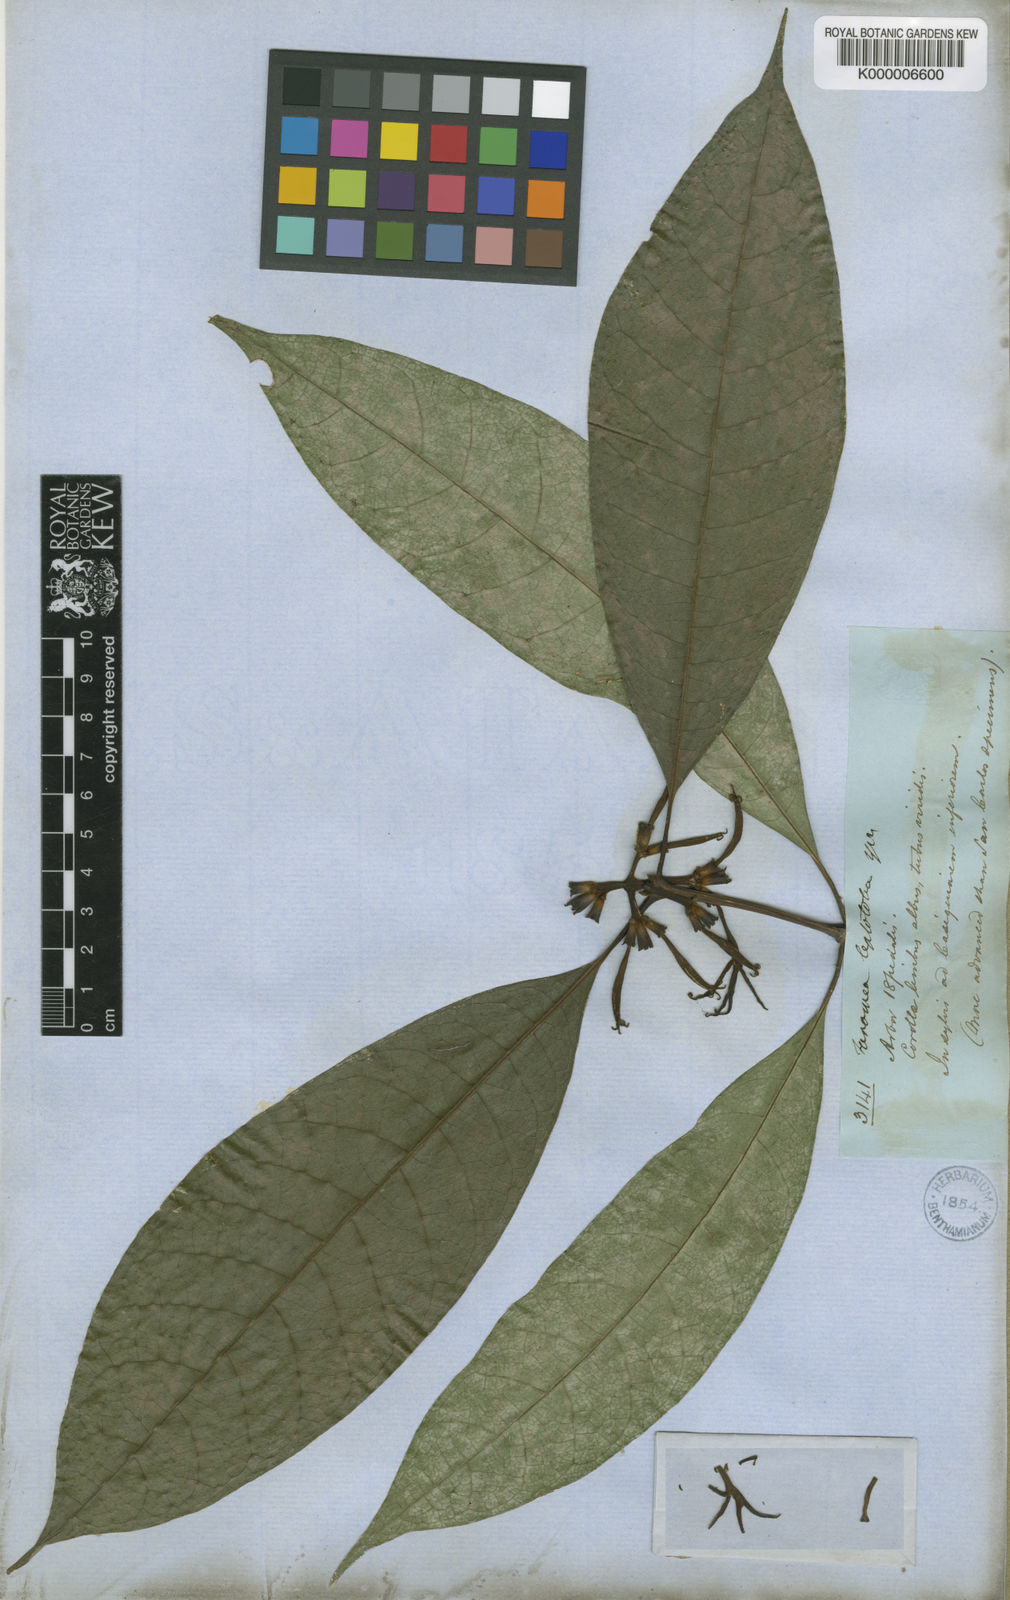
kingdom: Plantae
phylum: Tracheophyta
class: Magnoliopsida
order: Gentianales
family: Rubiaceae
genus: Coussarea
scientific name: Coussarea
